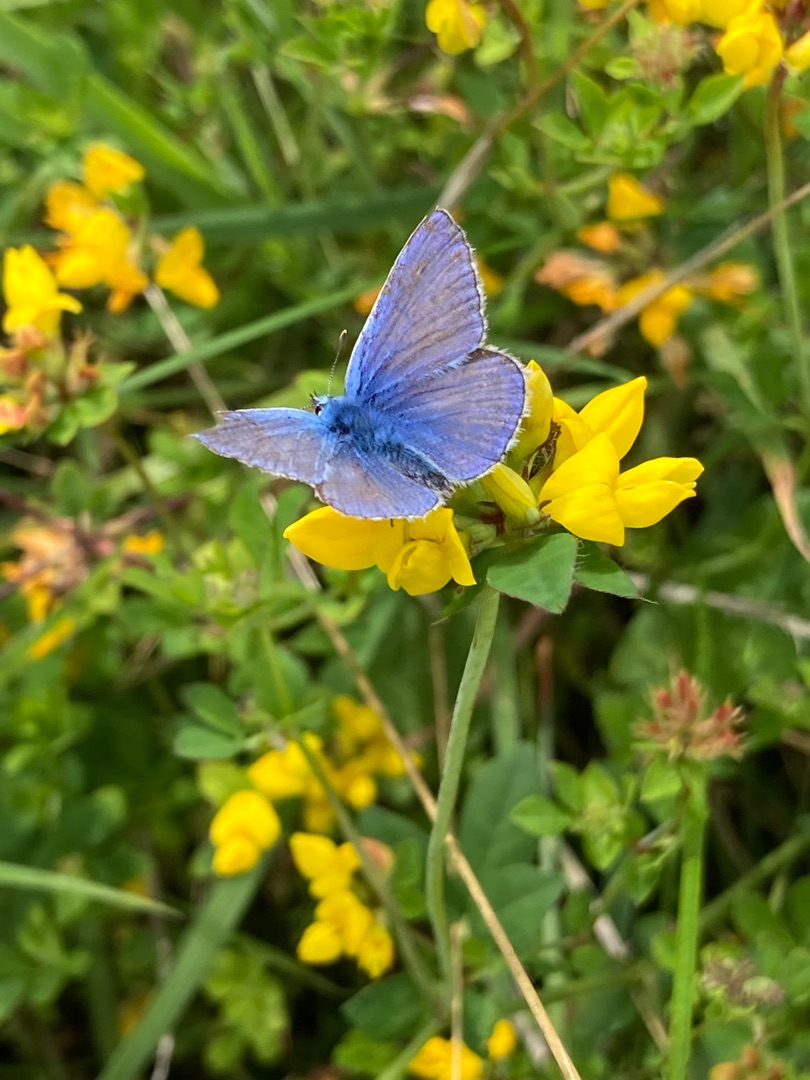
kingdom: Animalia
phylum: Arthropoda
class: Insecta
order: Lepidoptera
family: Lycaenidae
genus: Polyommatus
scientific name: Polyommatus icarus
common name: Almindelig blåfugl
